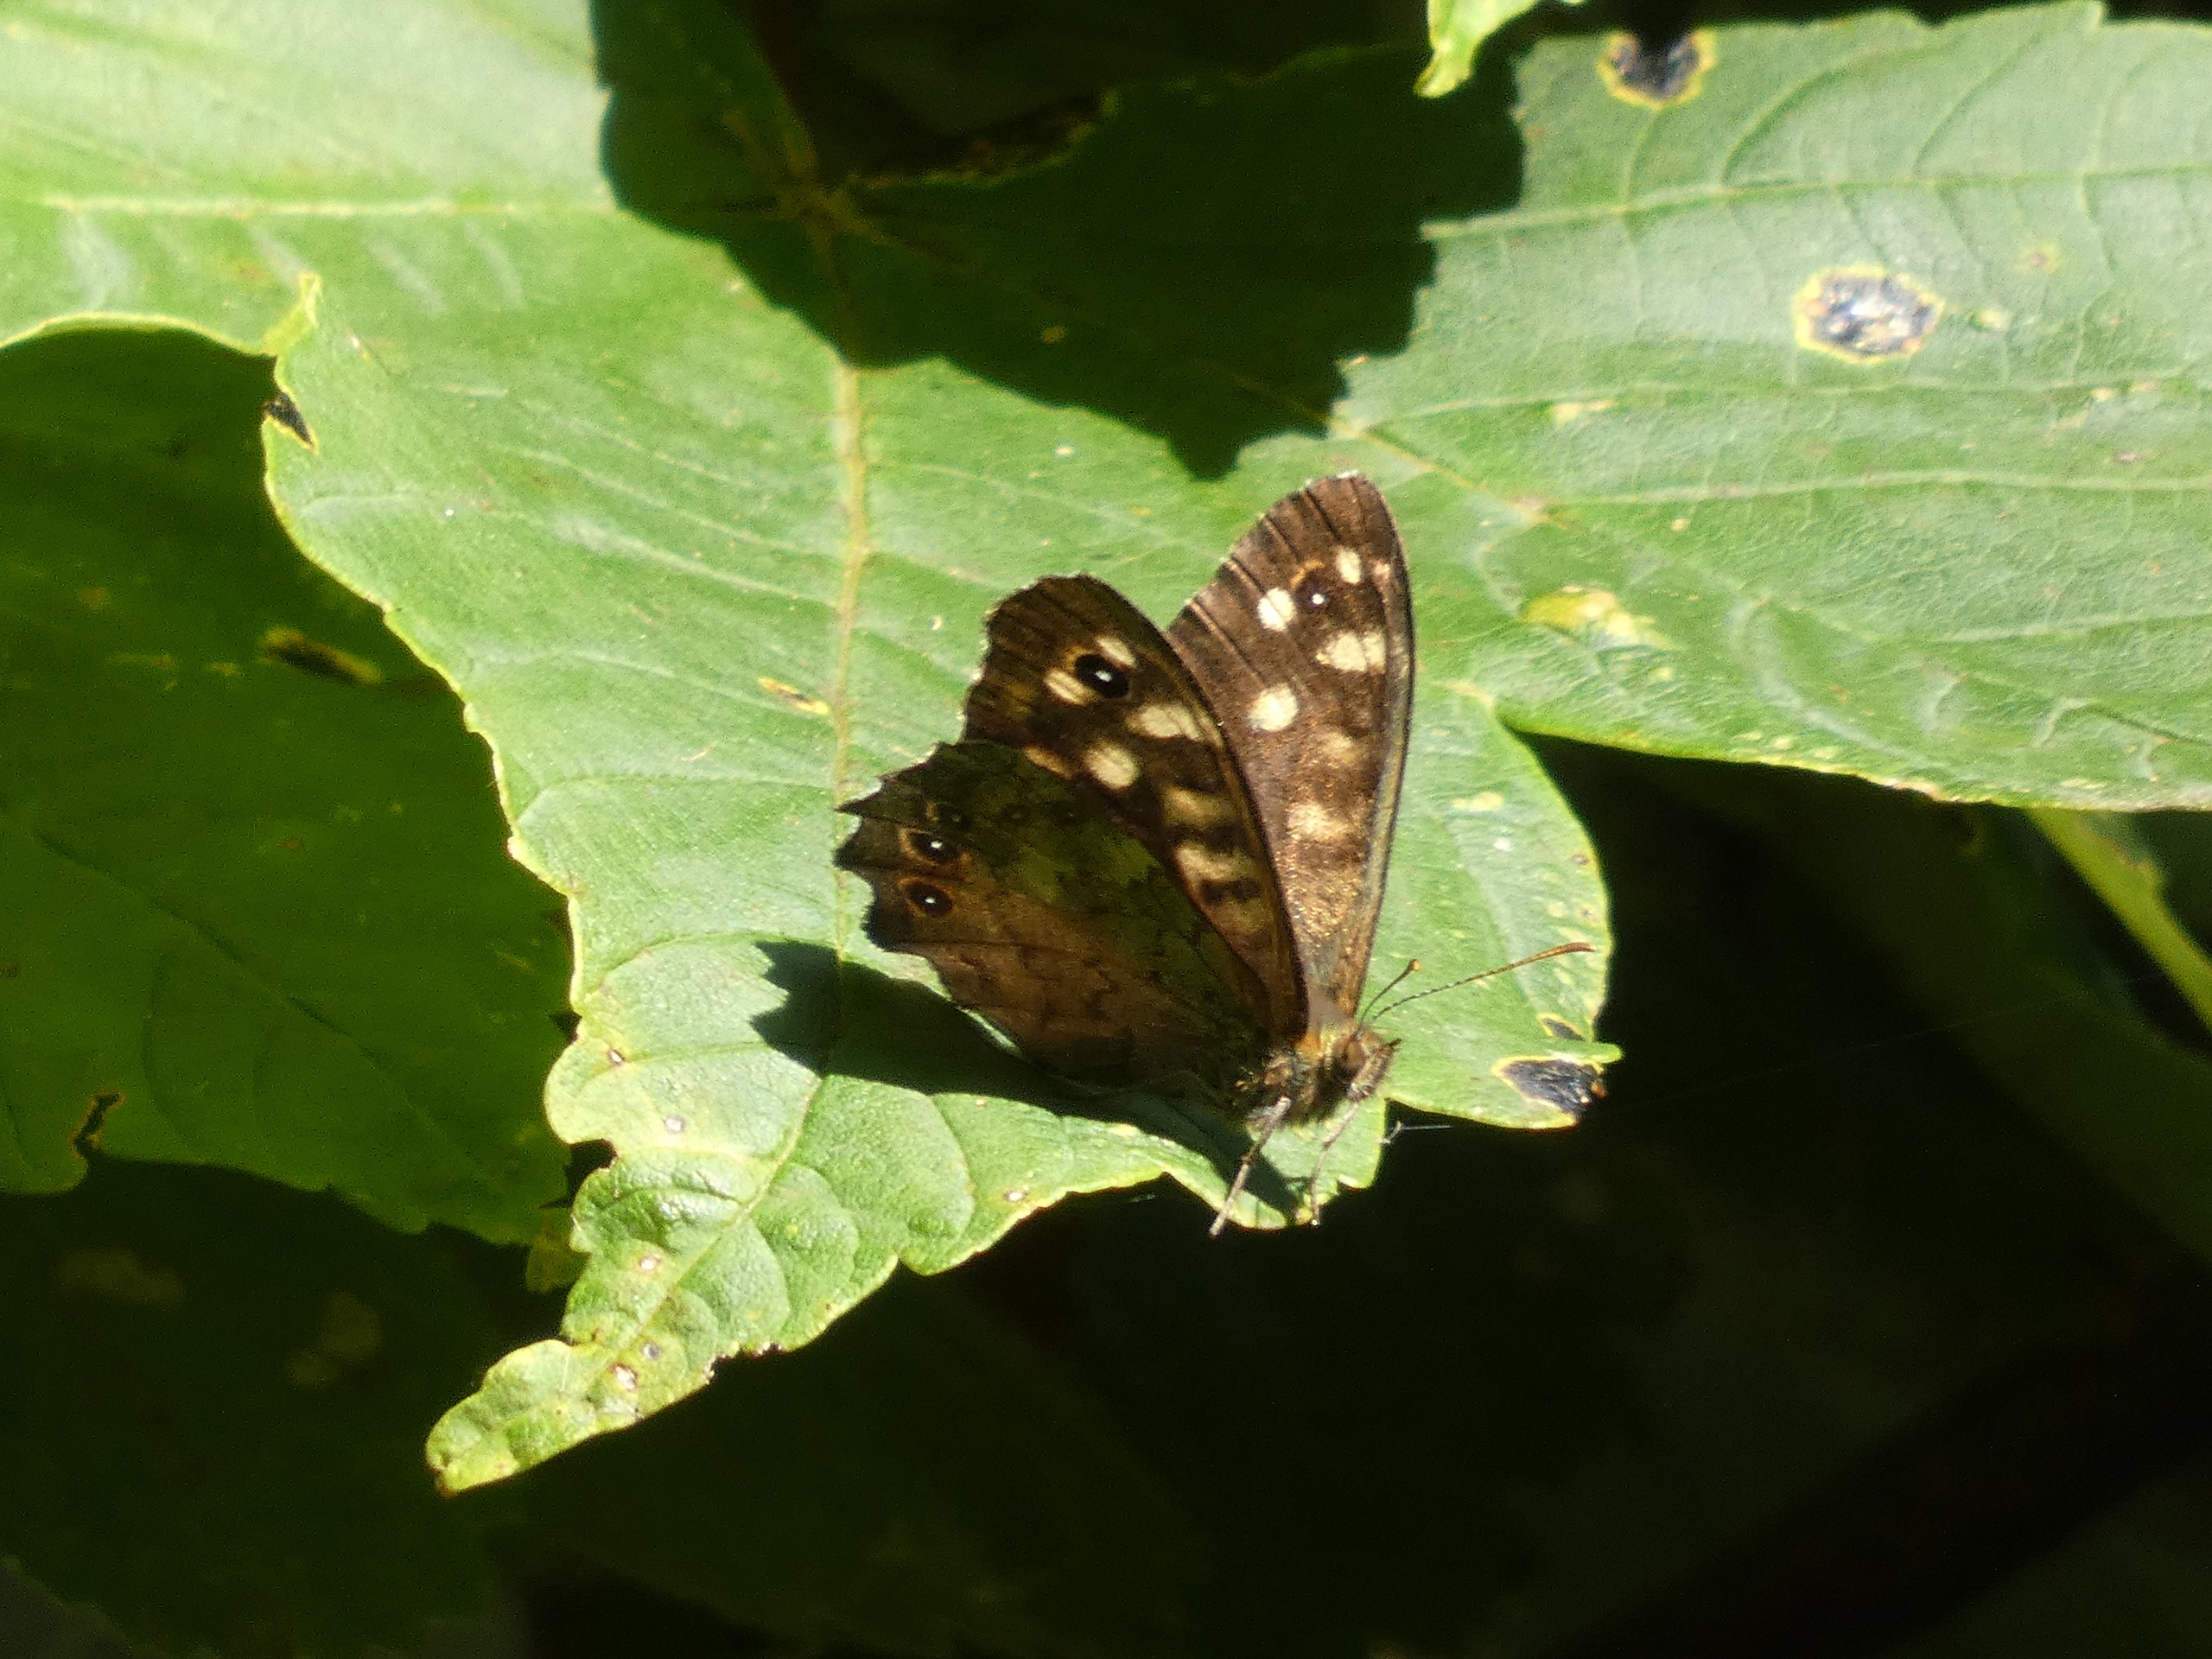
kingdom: Animalia
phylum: Arthropoda
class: Insecta
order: Lepidoptera
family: Nymphalidae
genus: Pararge
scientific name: Pararge aegeria
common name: Skovrandøje
